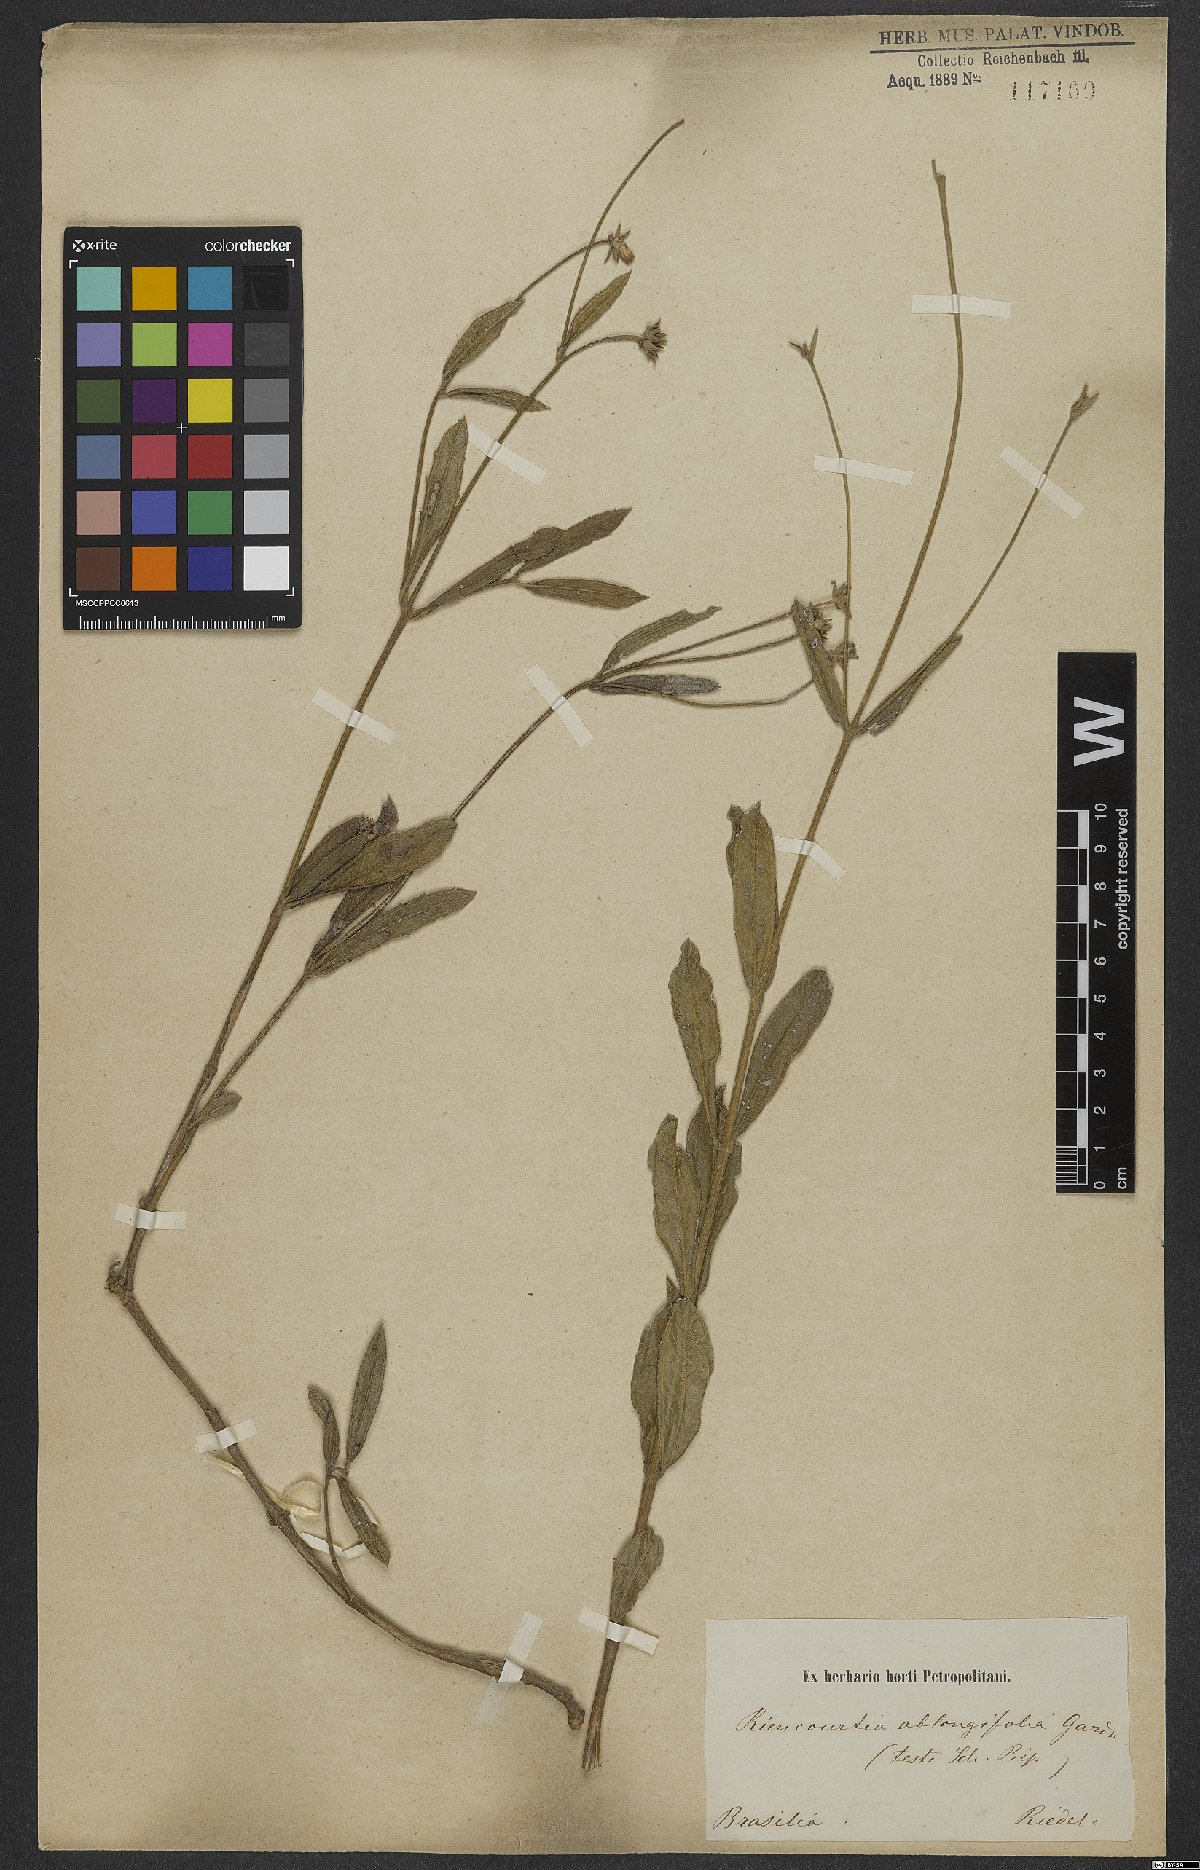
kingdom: Plantae
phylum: Tracheophyta
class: Magnoliopsida
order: Asterales
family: Asteraceae
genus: Riencourtia
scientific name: Riencourtia oblongifolia
